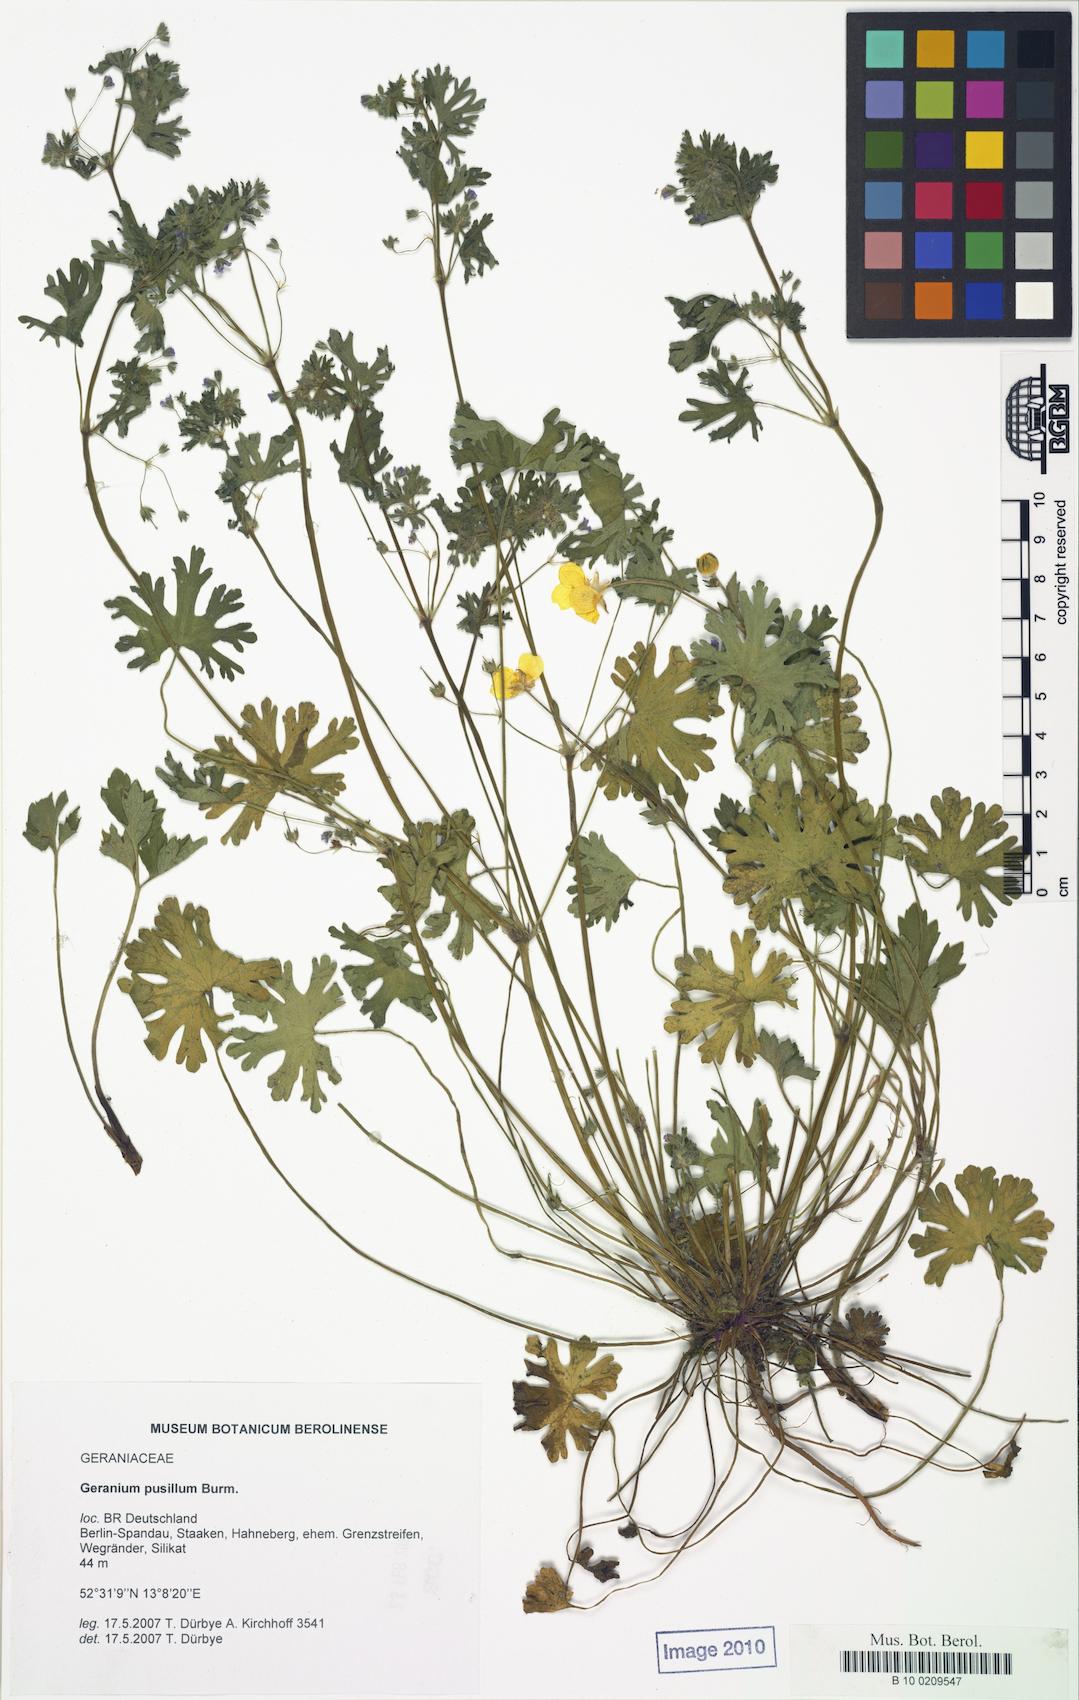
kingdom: Plantae
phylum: Tracheophyta
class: Magnoliopsida
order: Geraniales
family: Geraniaceae
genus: Geranium
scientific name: Geranium pusillum
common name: Small geranium
